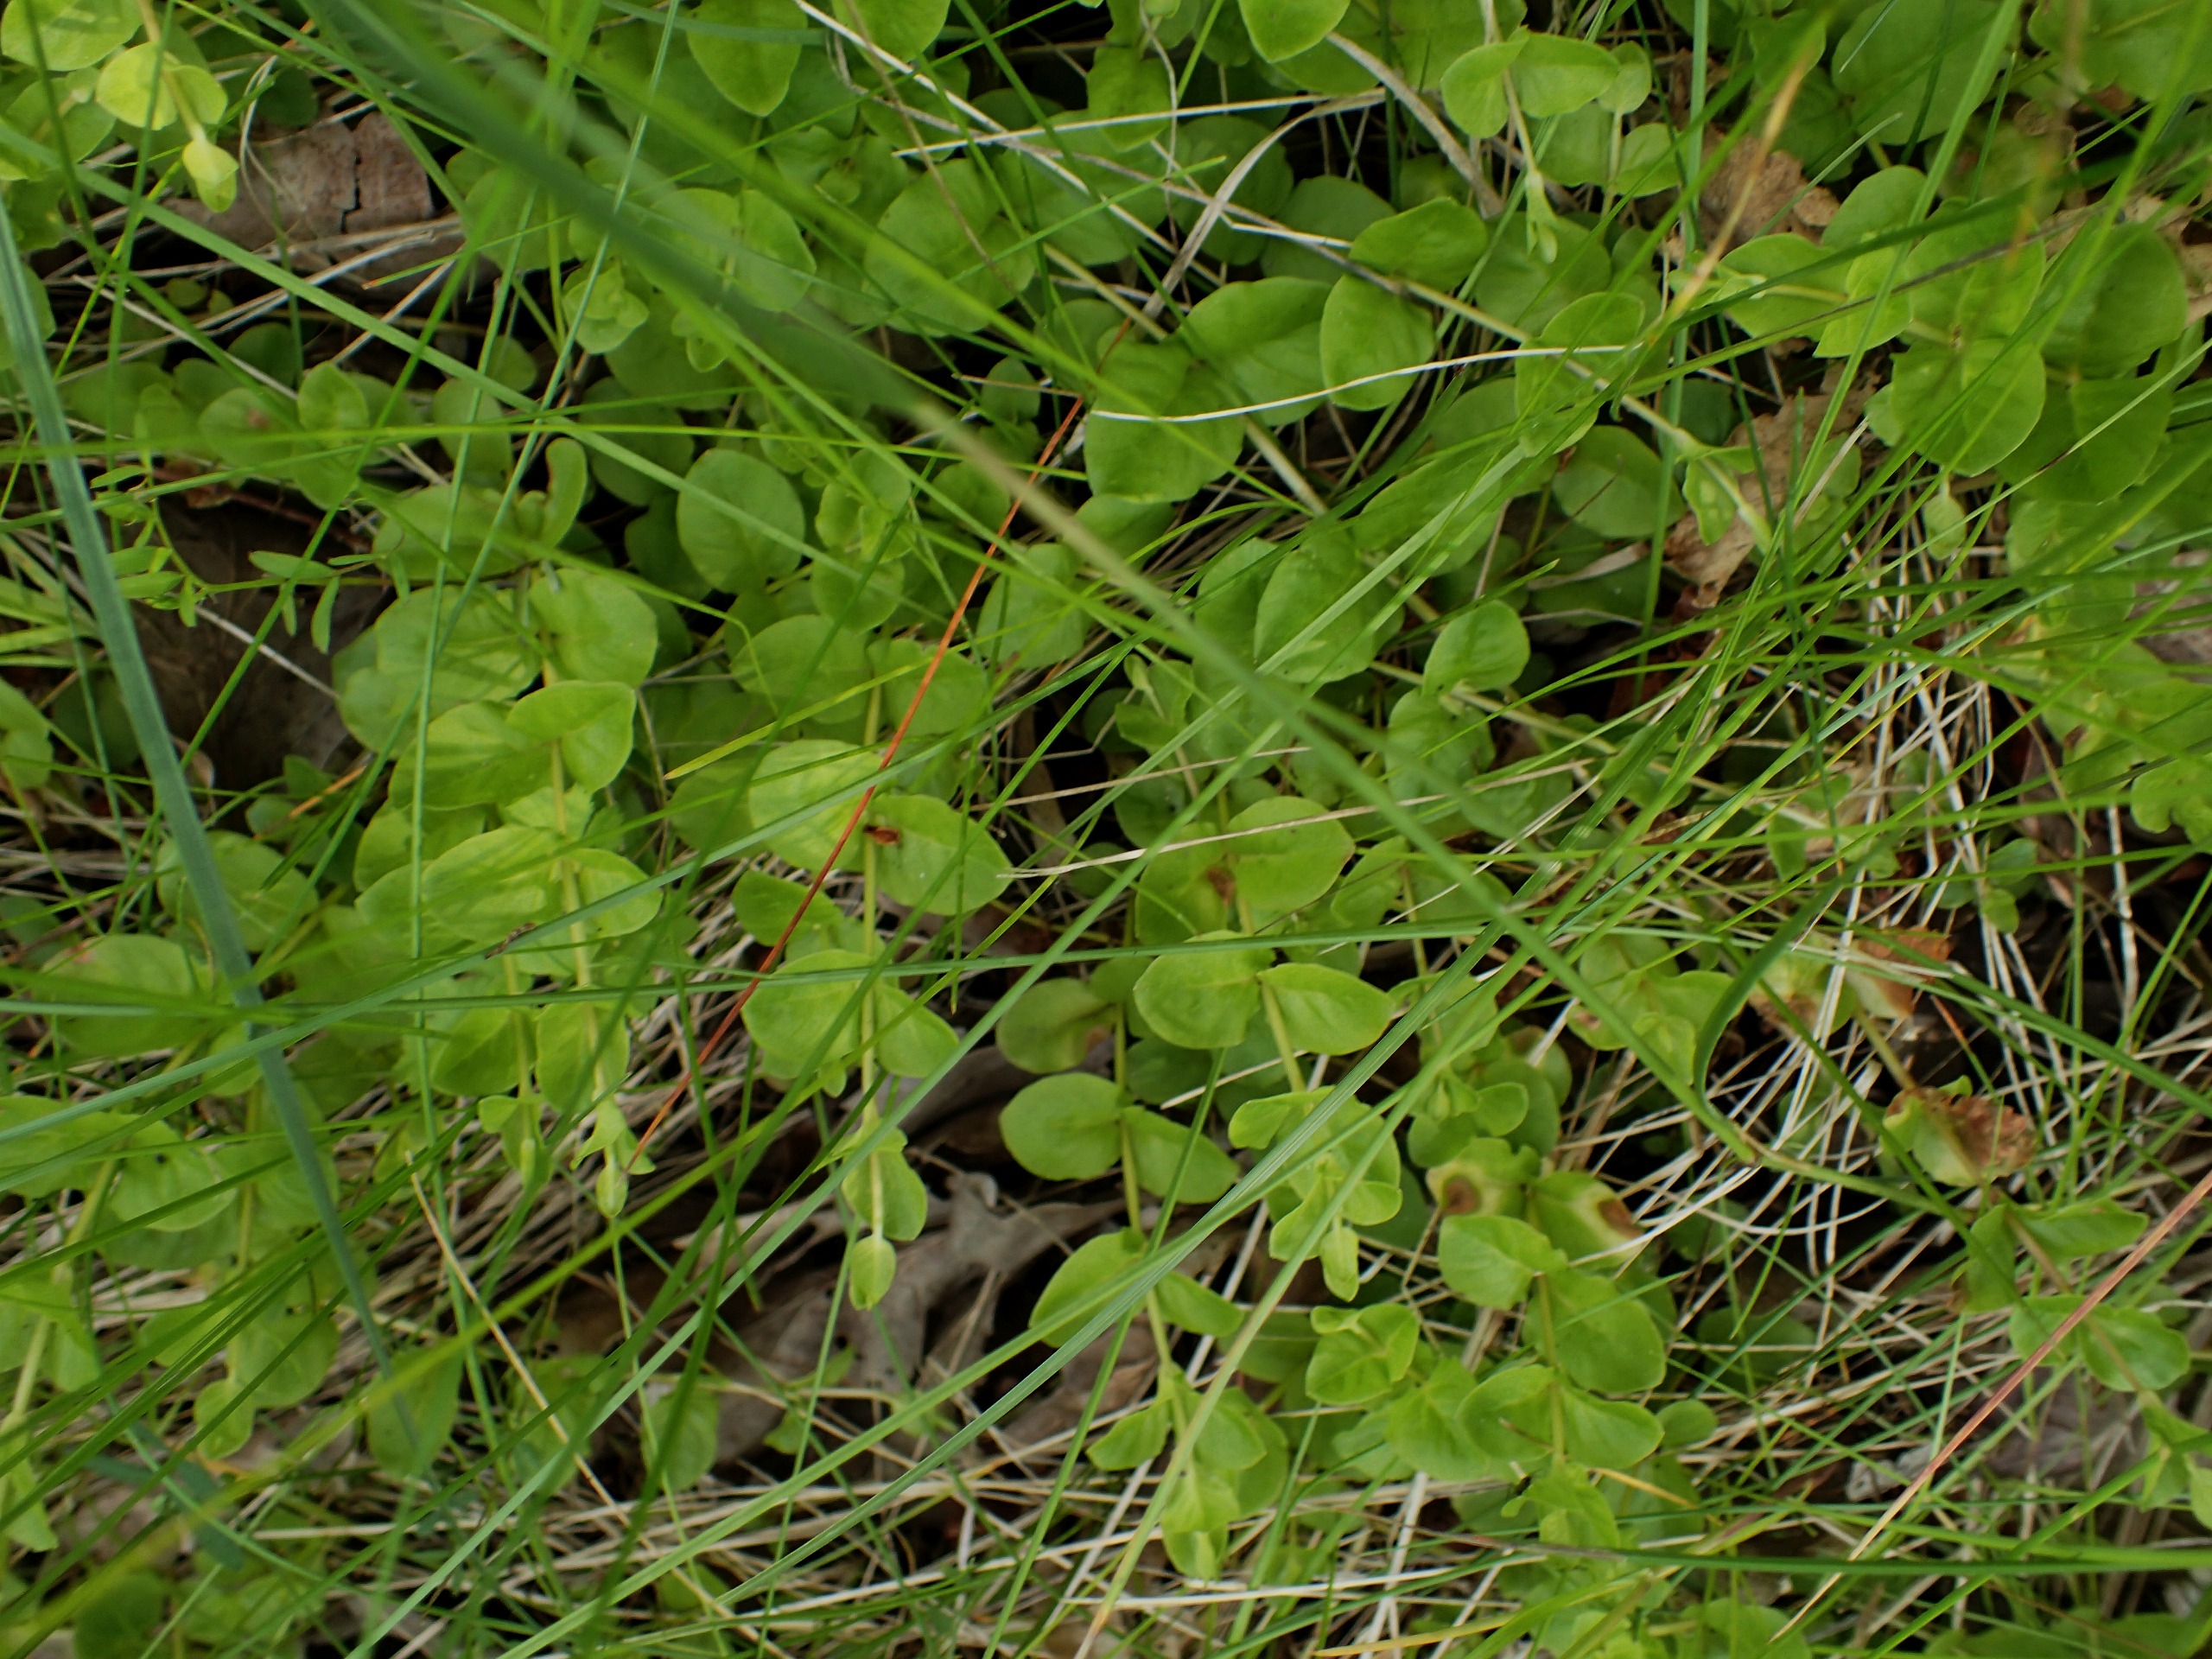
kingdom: Plantae
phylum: Tracheophyta
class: Magnoliopsida
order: Ericales
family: Primulaceae
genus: Lysimachia
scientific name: Lysimachia nummularia
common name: Pengebladet fredløs
